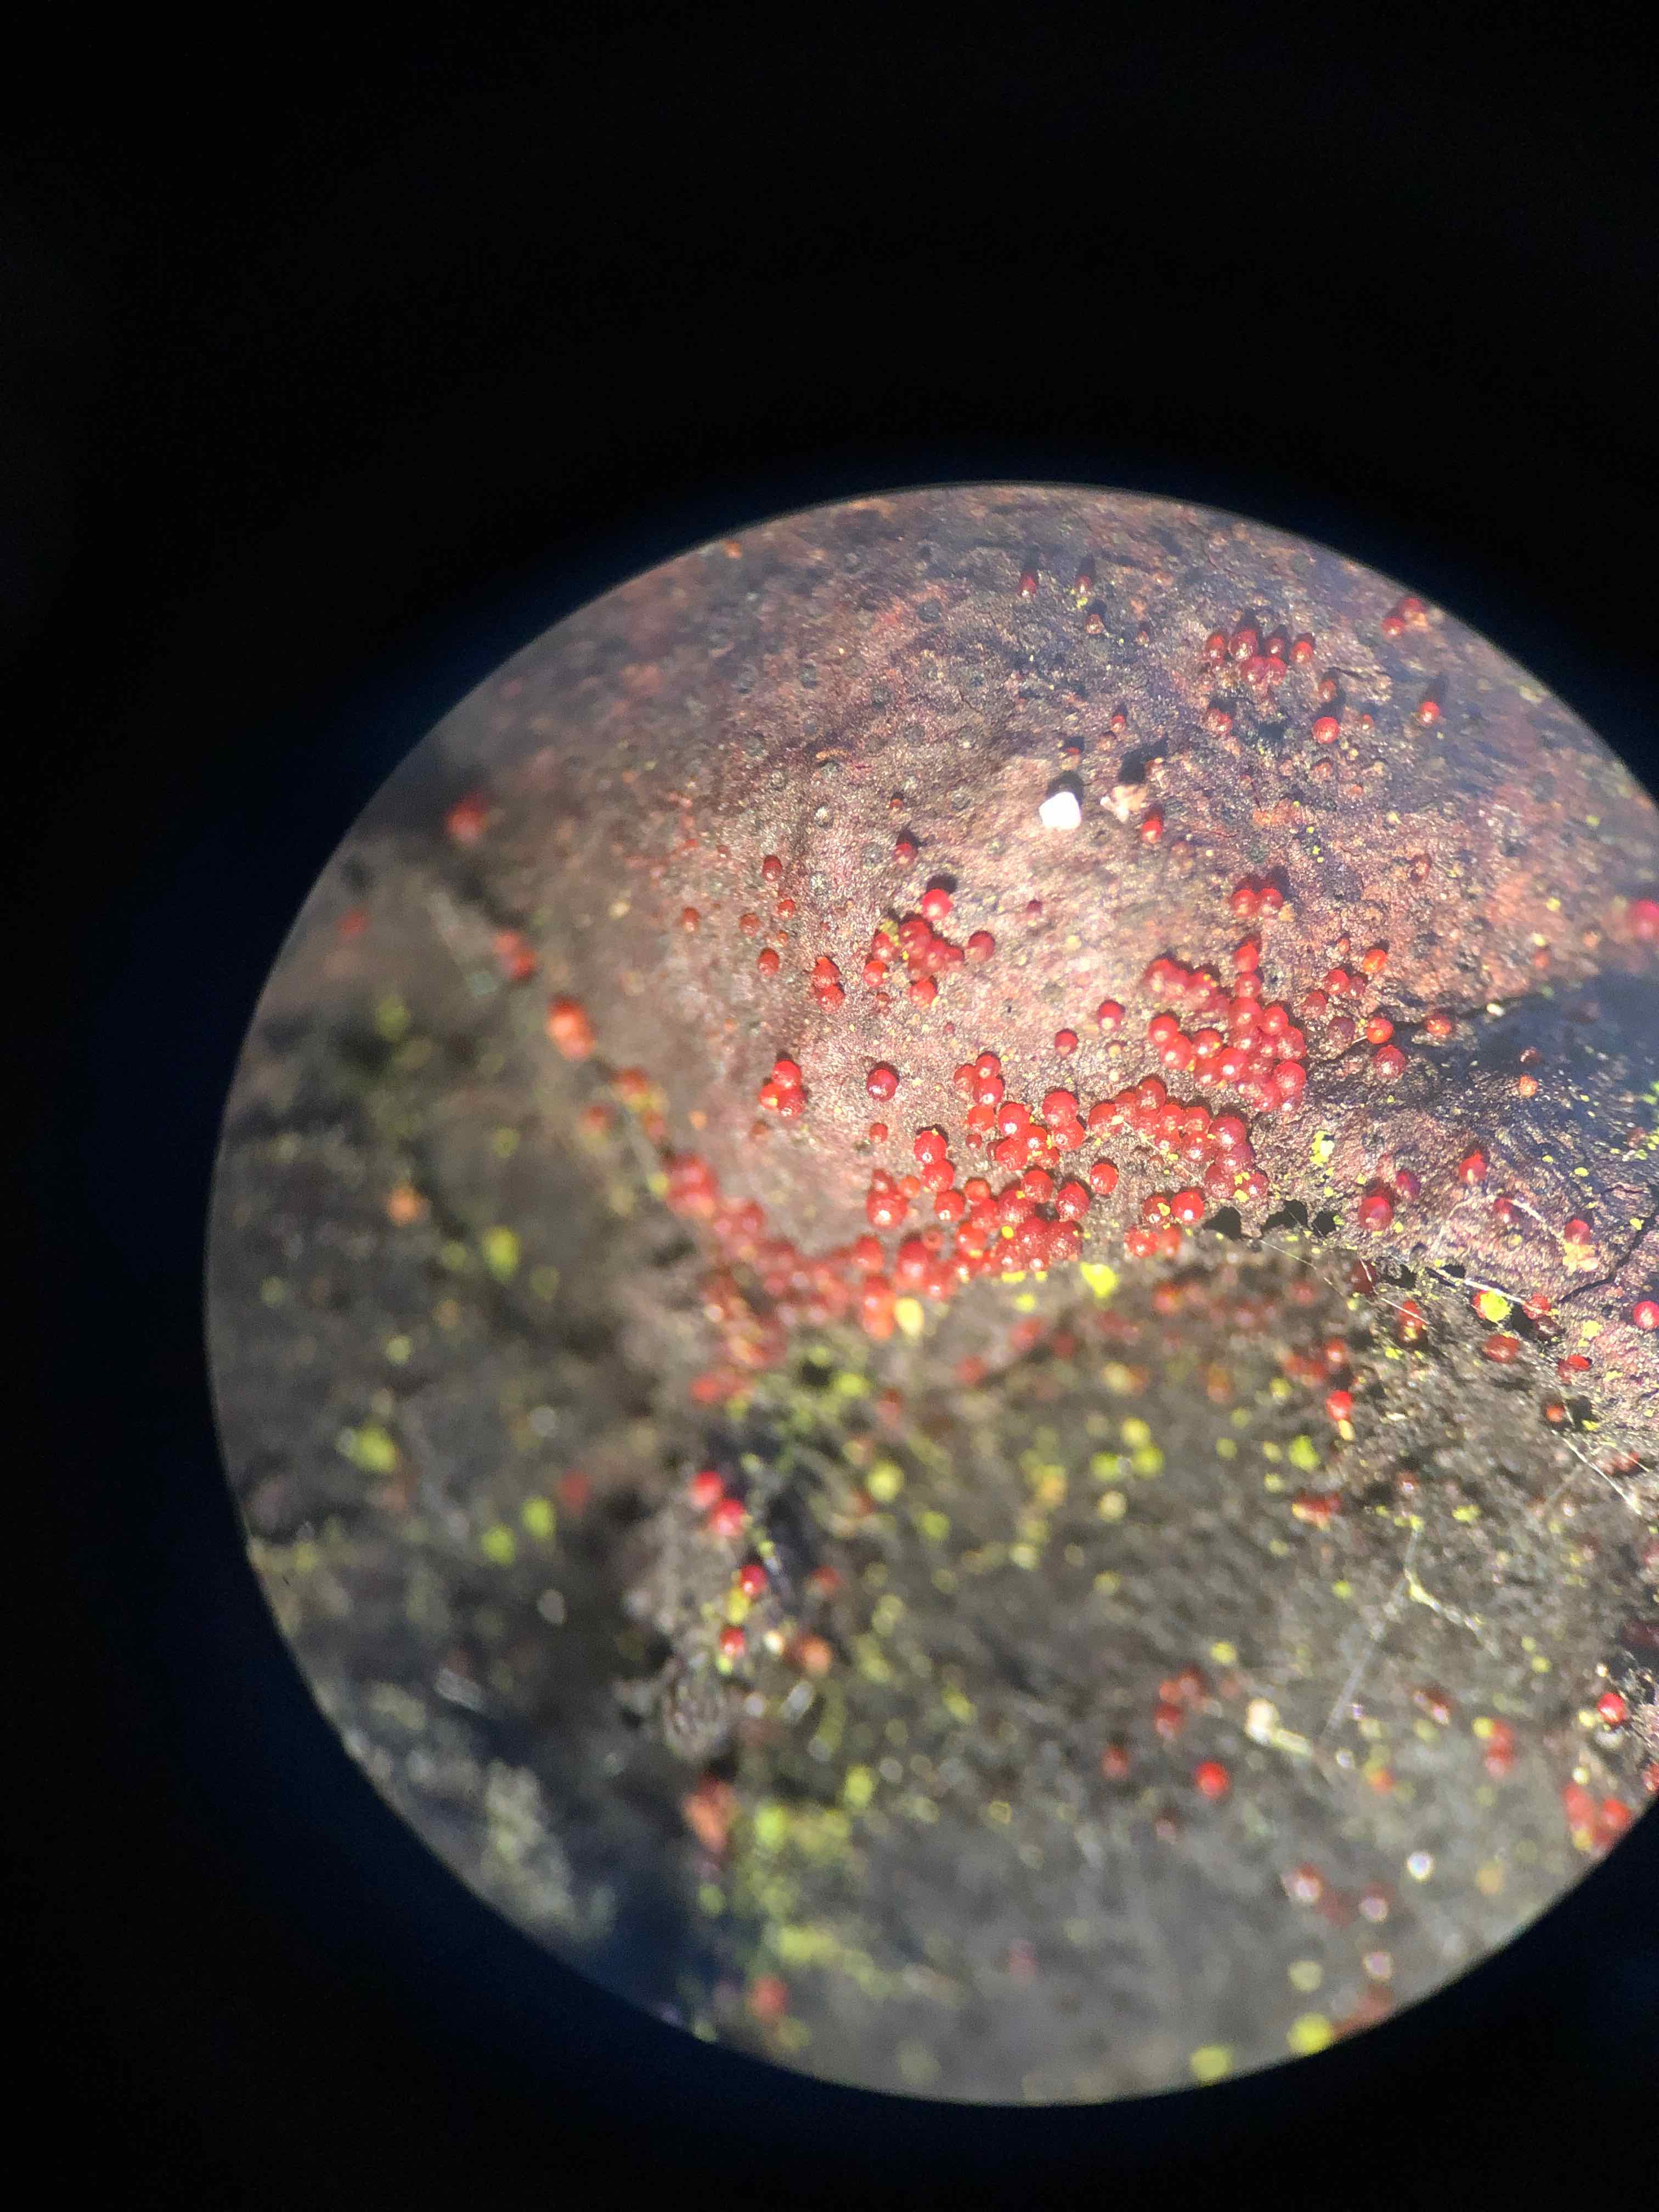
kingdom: Fungi
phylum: Ascomycota
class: Sordariomycetes
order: Hypocreales
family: Nectriaceae
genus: Cosmospora
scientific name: Cosmospora arxii
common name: kuljordbær-cinnobersvamp
